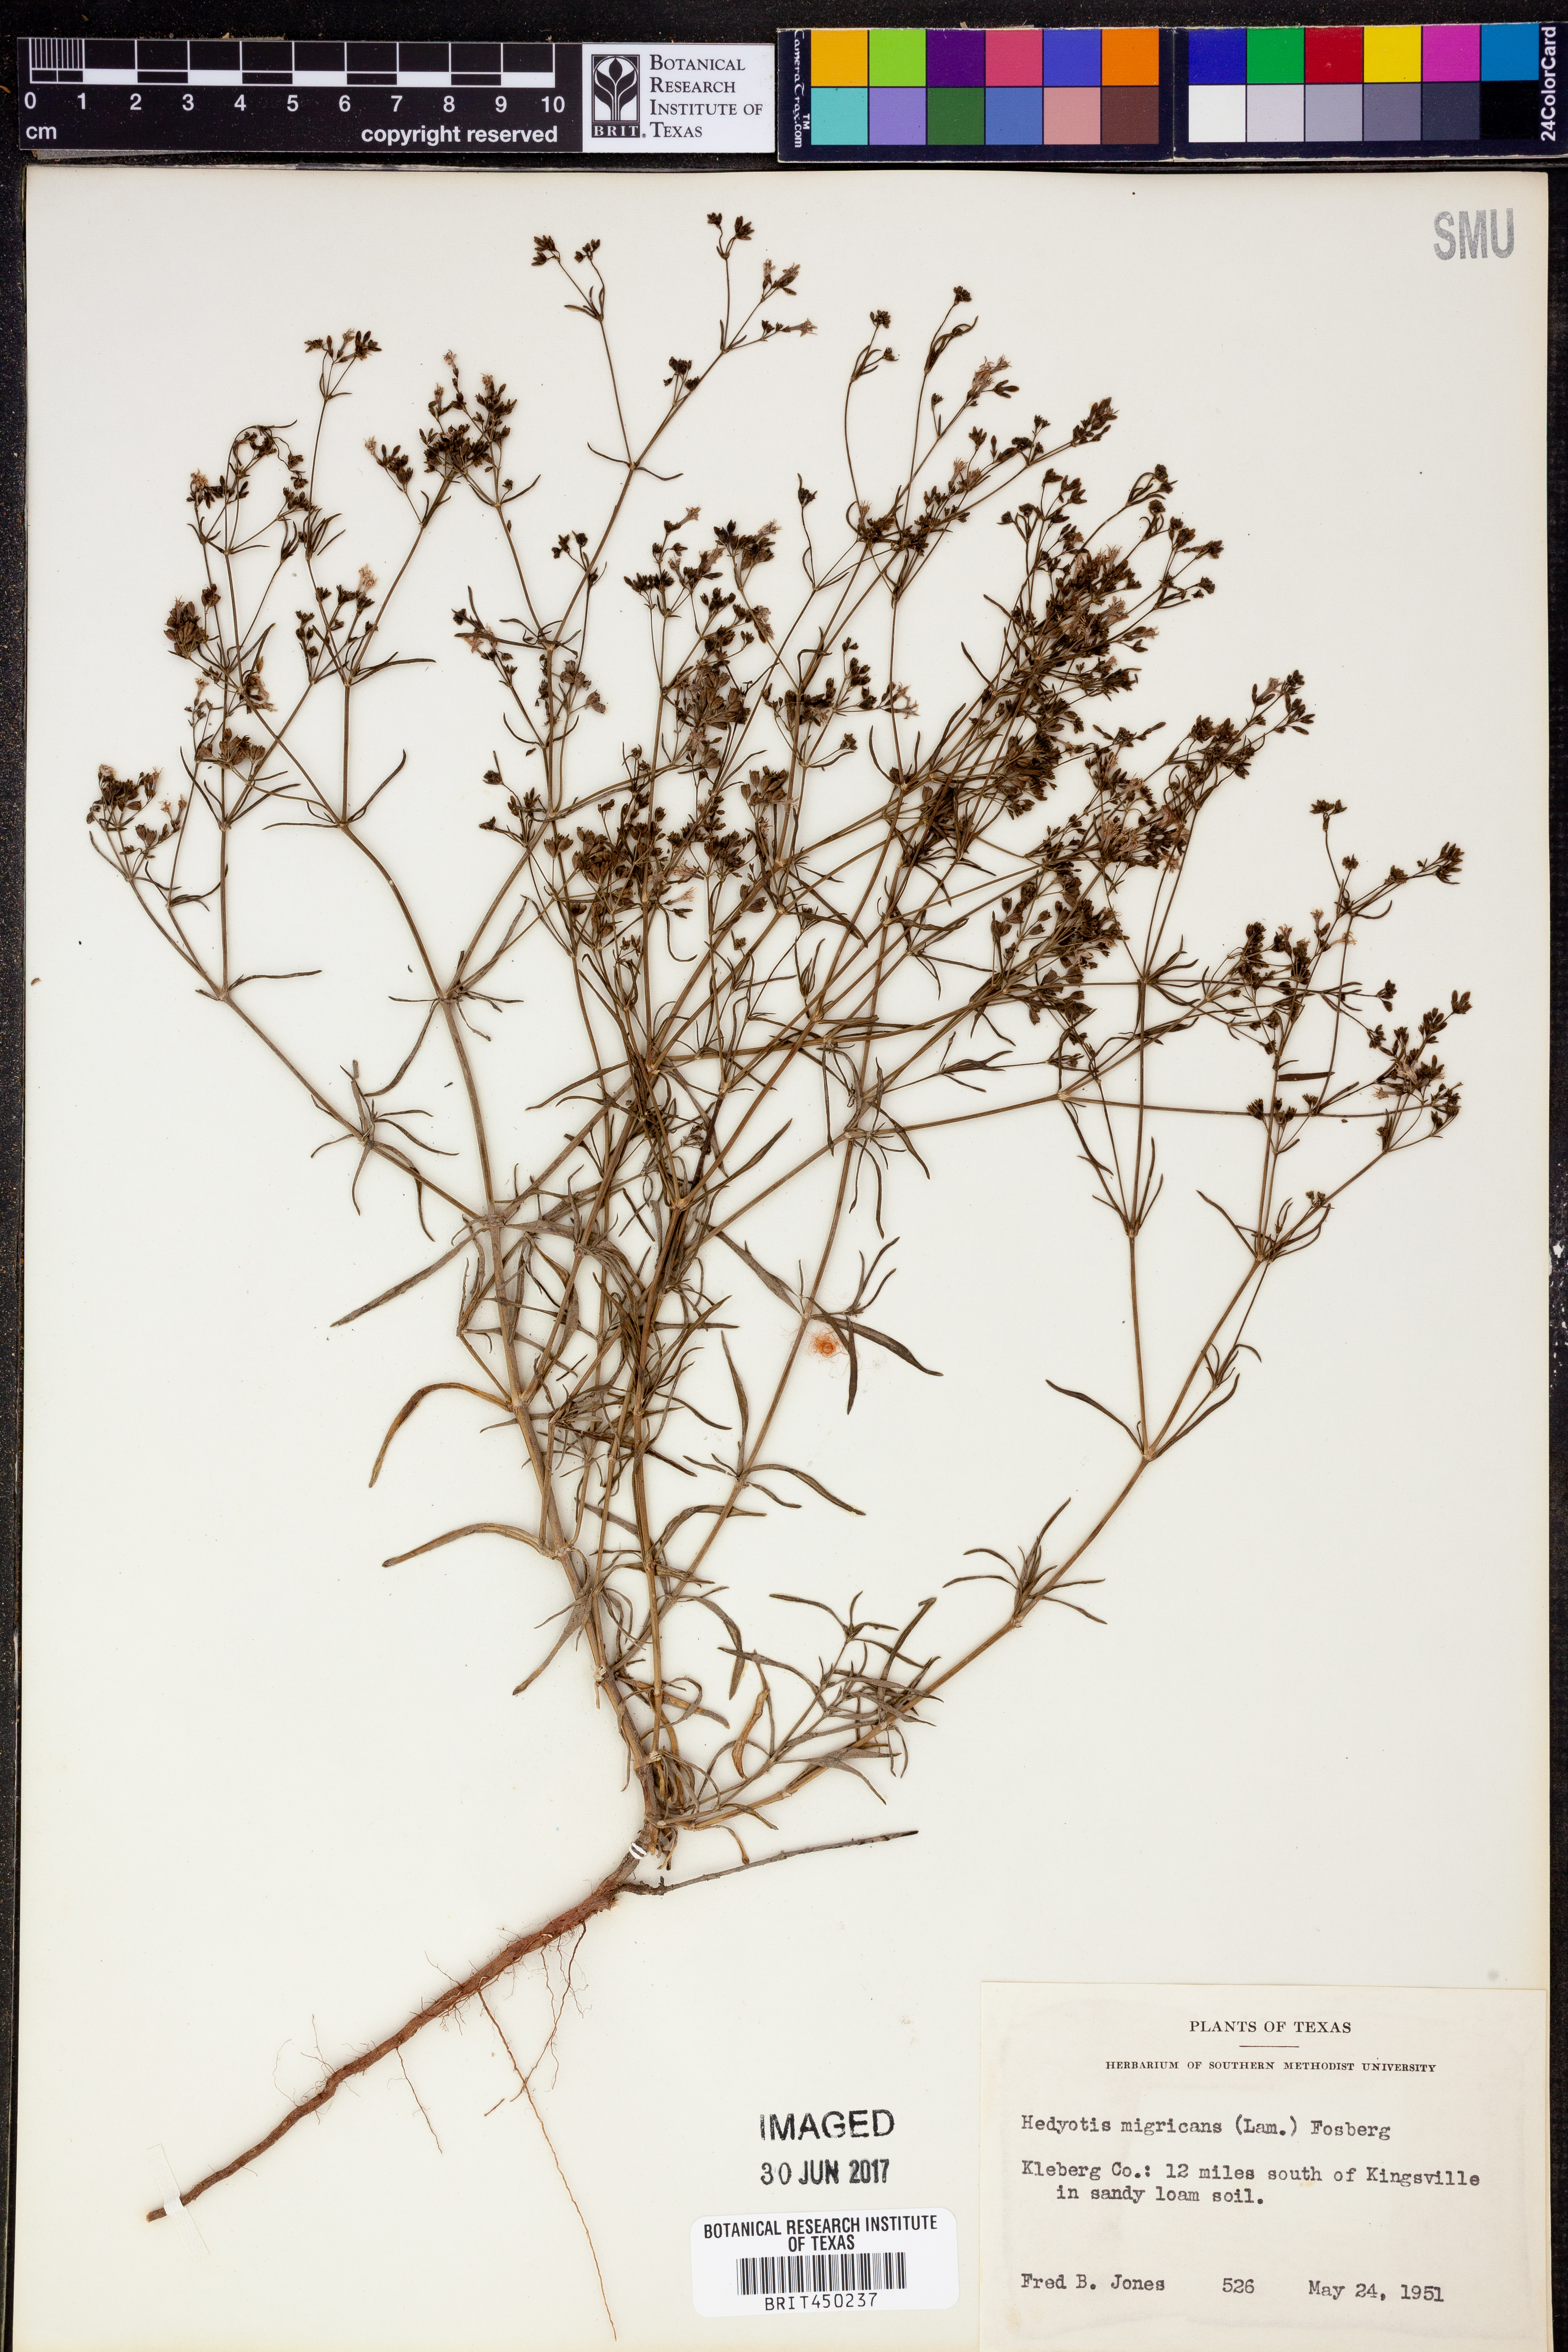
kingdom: Plantae
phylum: Tracheophyta
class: Magnoliopsida
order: Gentianales
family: Rubiaceae
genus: Stenaria
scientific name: Stenaria nigricans
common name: Diamondflowers
